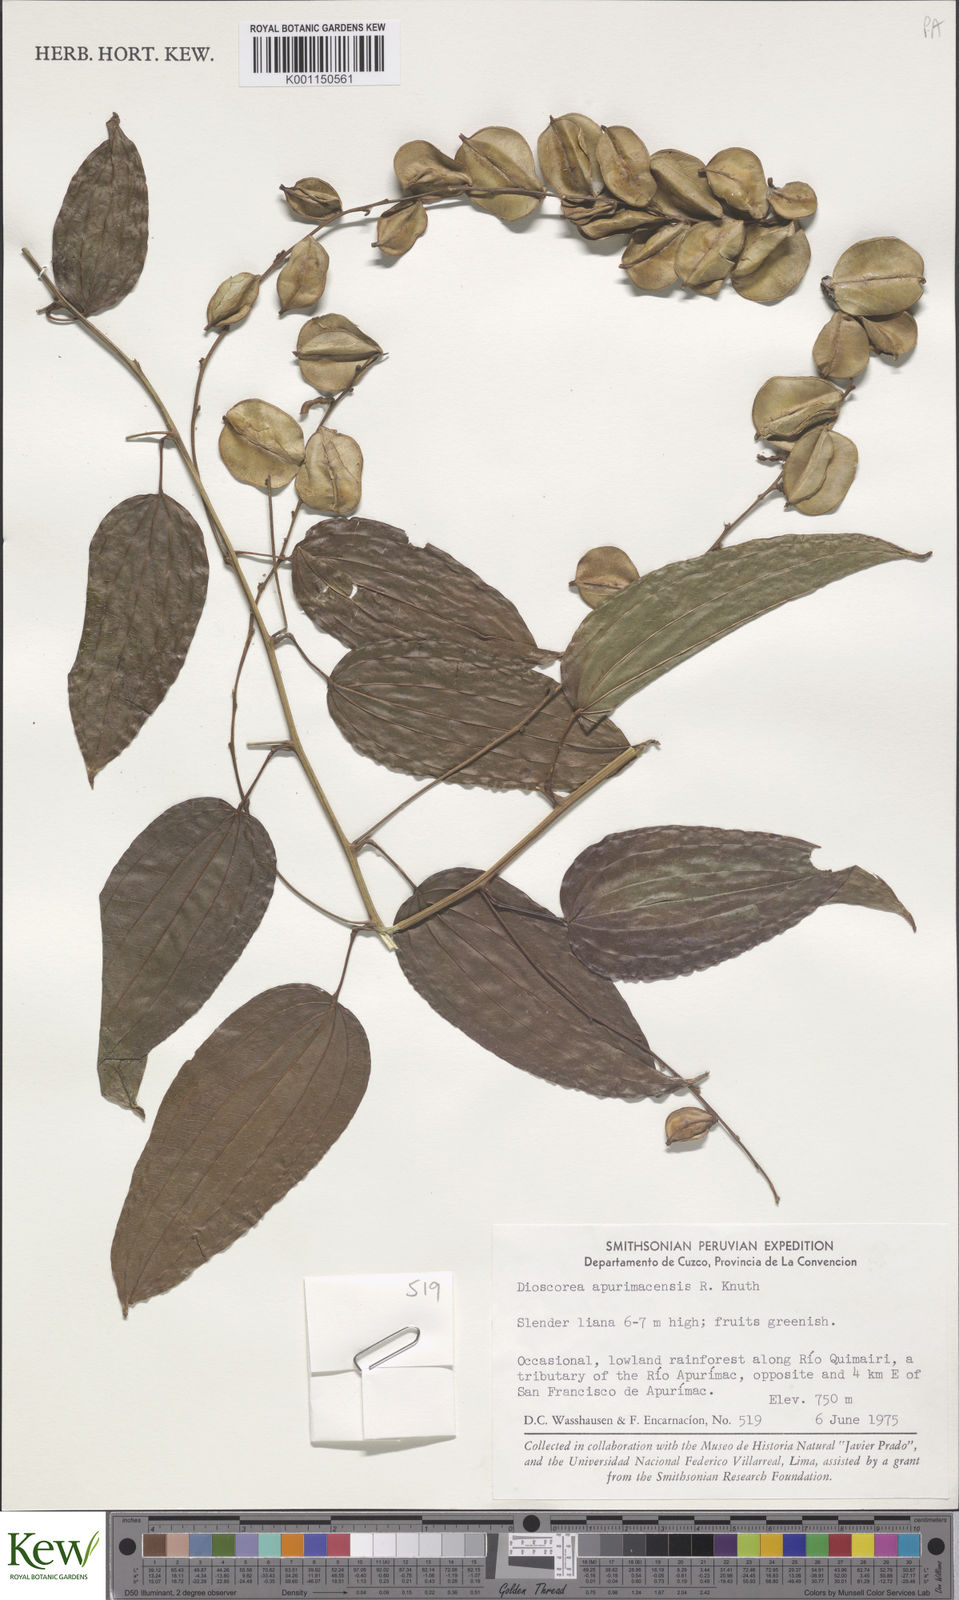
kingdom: Plantae
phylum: Tracheophyta
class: Liliopsida
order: Dioscoreales
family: Dioscoreaceae
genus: Dioscorea
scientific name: Dioscorea acanthogene
